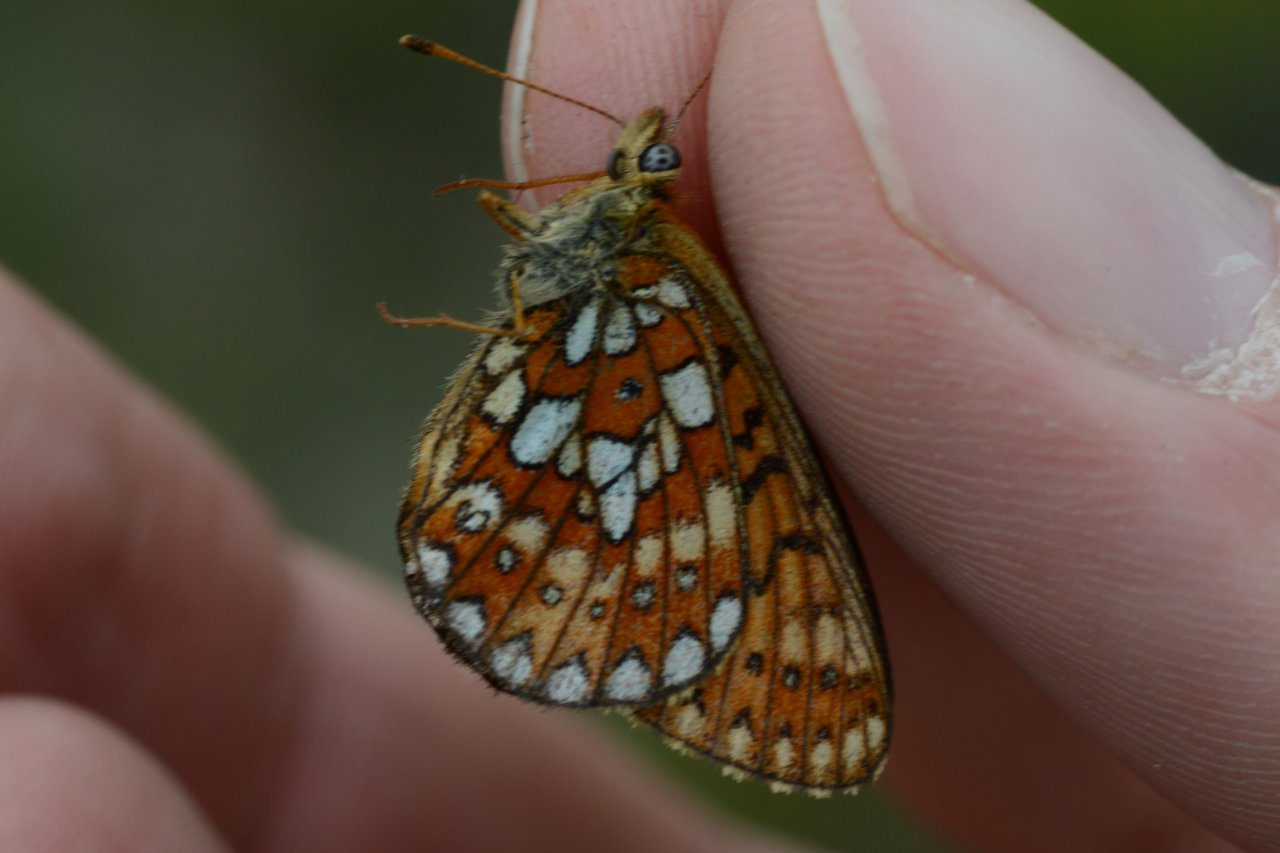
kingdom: Animalia
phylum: Arthropoda
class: Insecta
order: Lepidoptera
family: Nymphalidae
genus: Boloria
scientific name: Boloria eunomia
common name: Bog Fritillary
